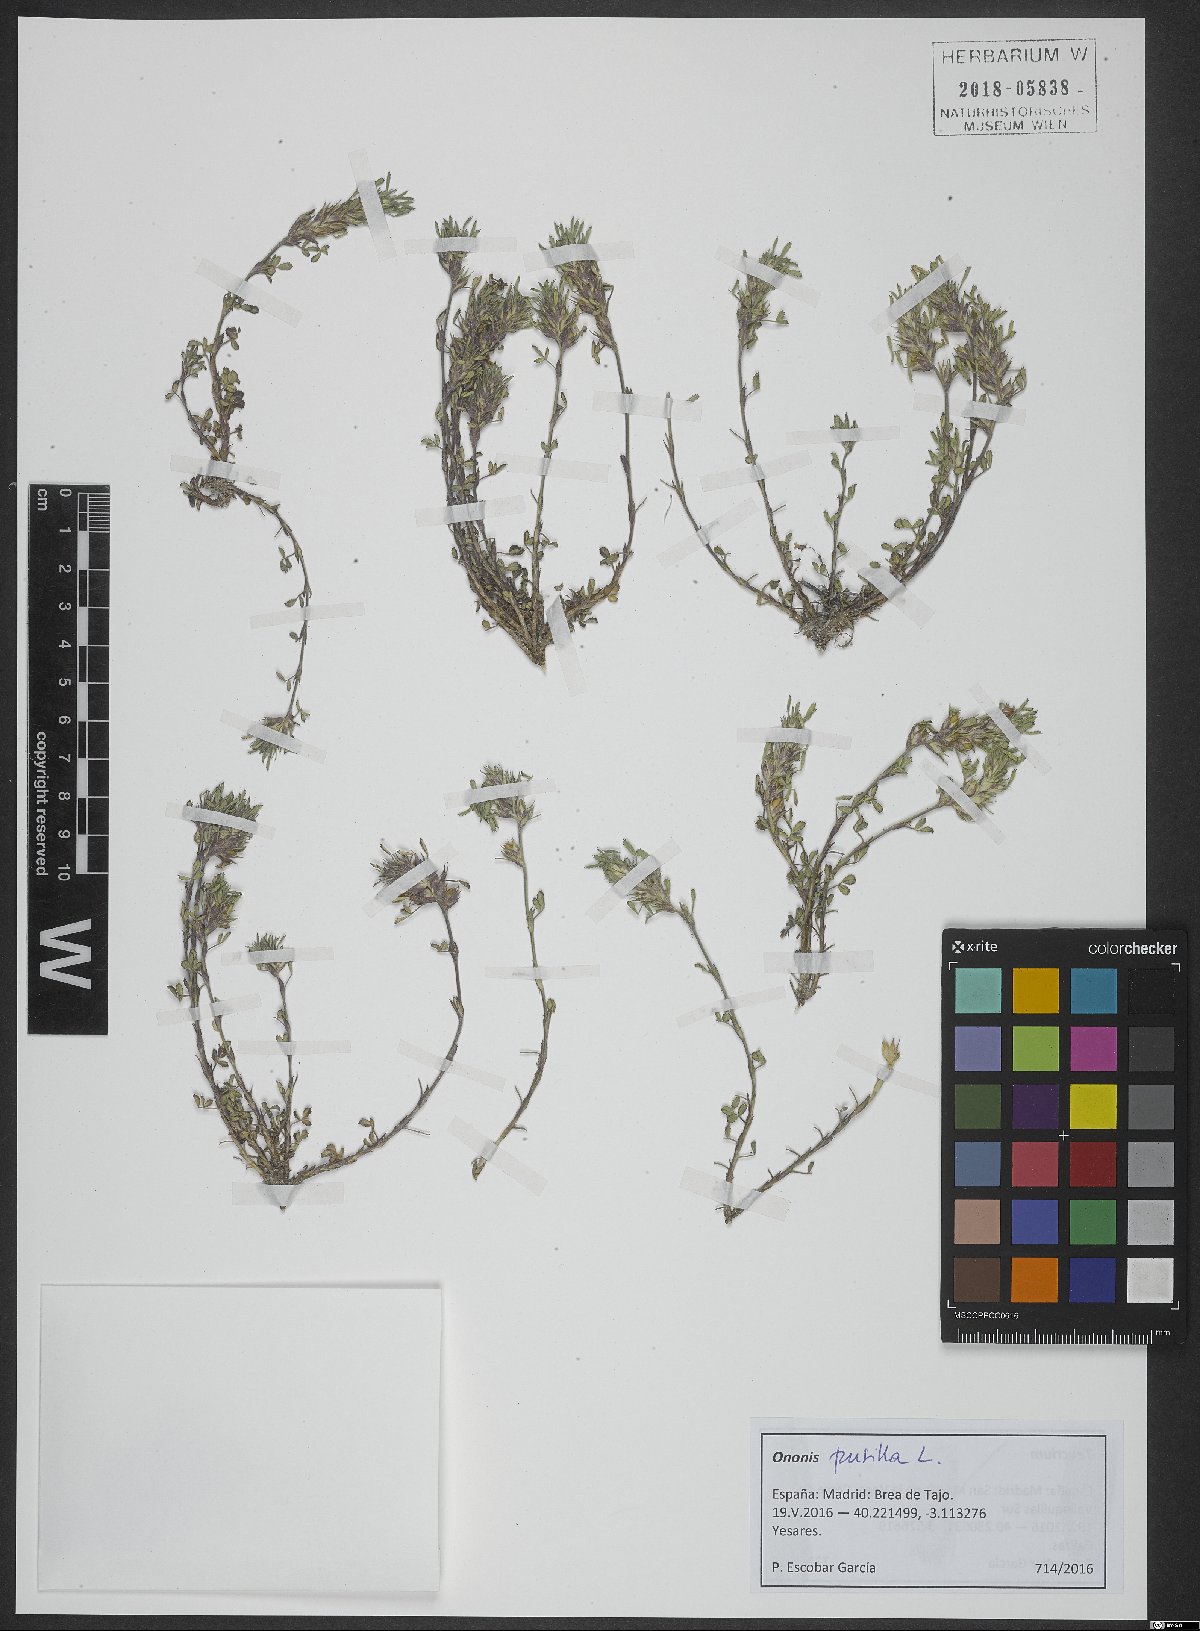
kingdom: Plantae
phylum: Tracheophyta
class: Magnoliopsida
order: Fabales
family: Fabaceae
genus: Ononis
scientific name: Ononis pusilla
